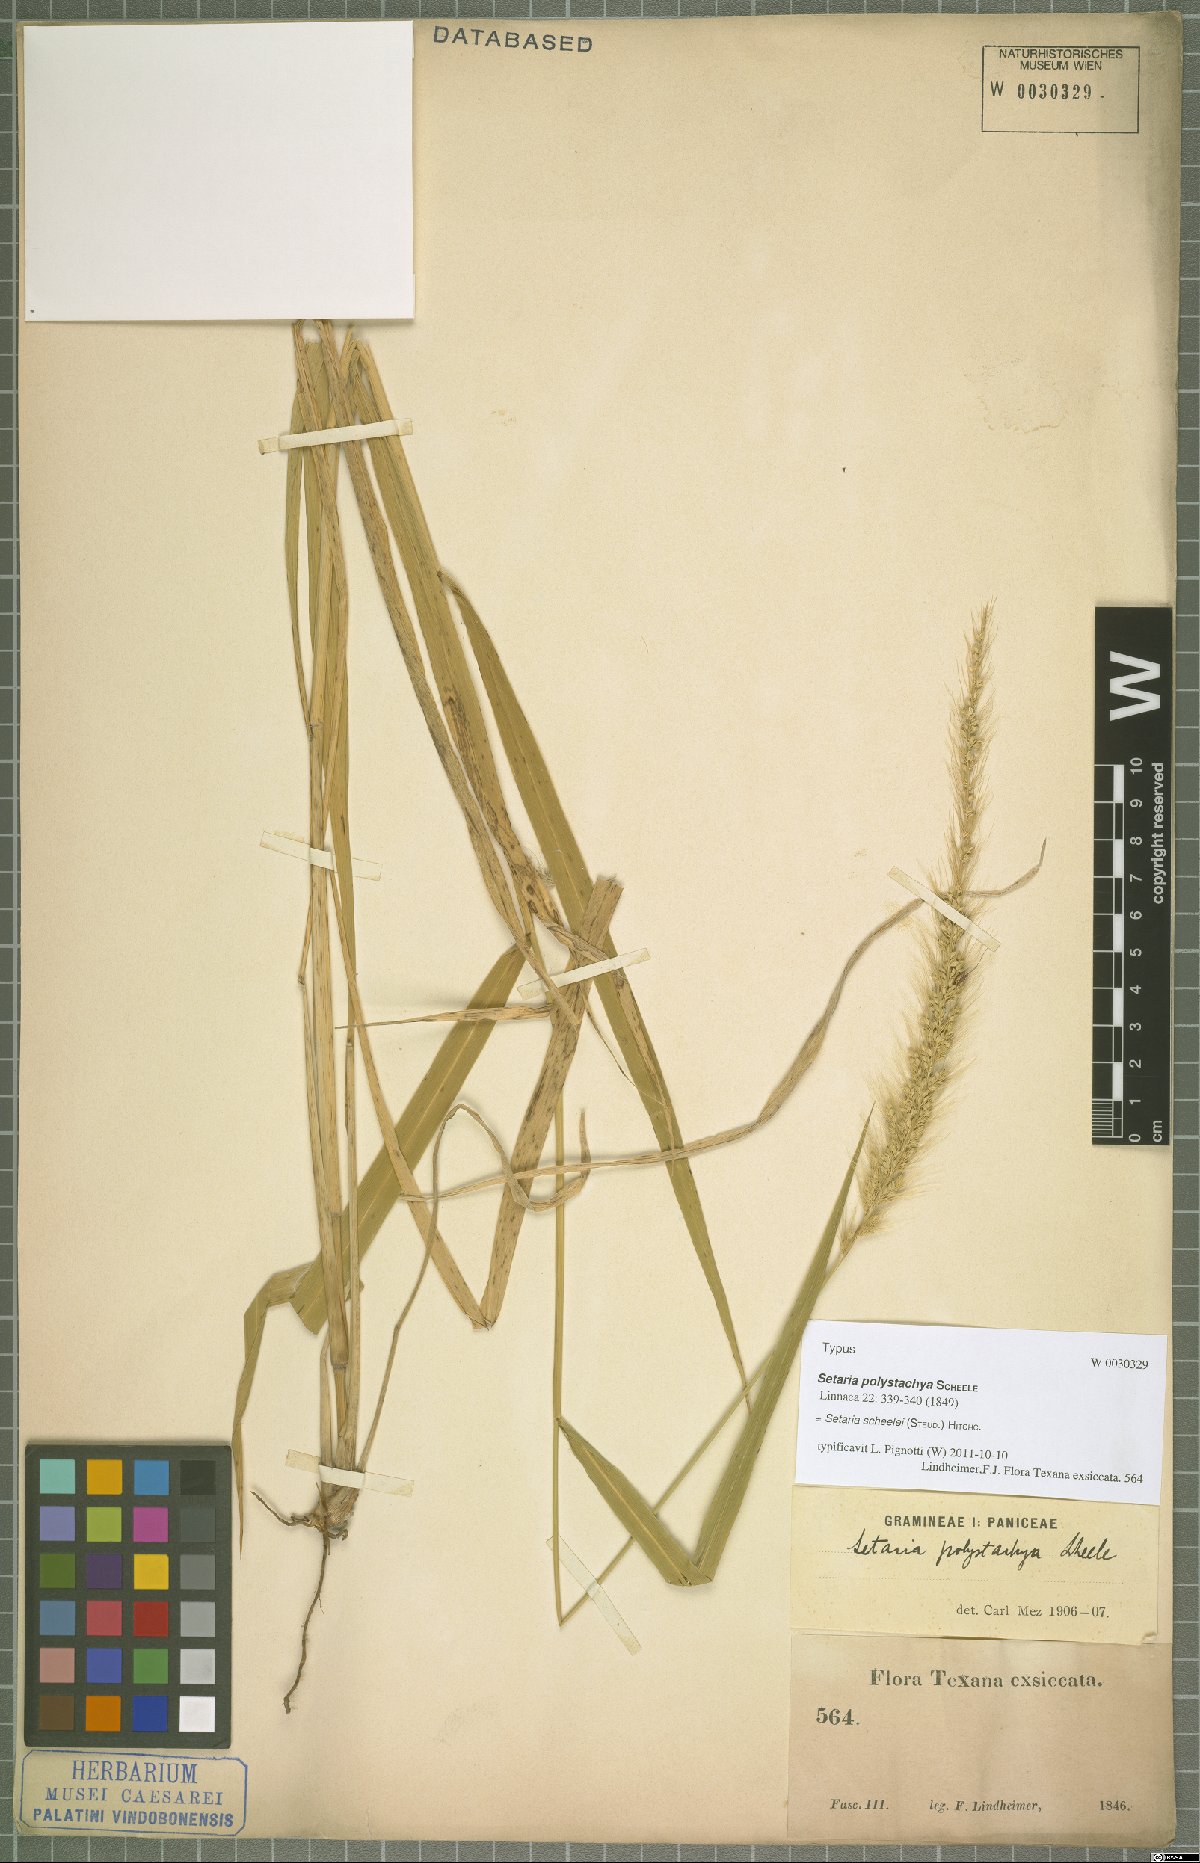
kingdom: Plantae
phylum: Tracheophyta
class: Liliopsida
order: Poales
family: Poaceae
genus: Setaria
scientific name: Setaria scheelei
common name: Southwestern bristle grass
